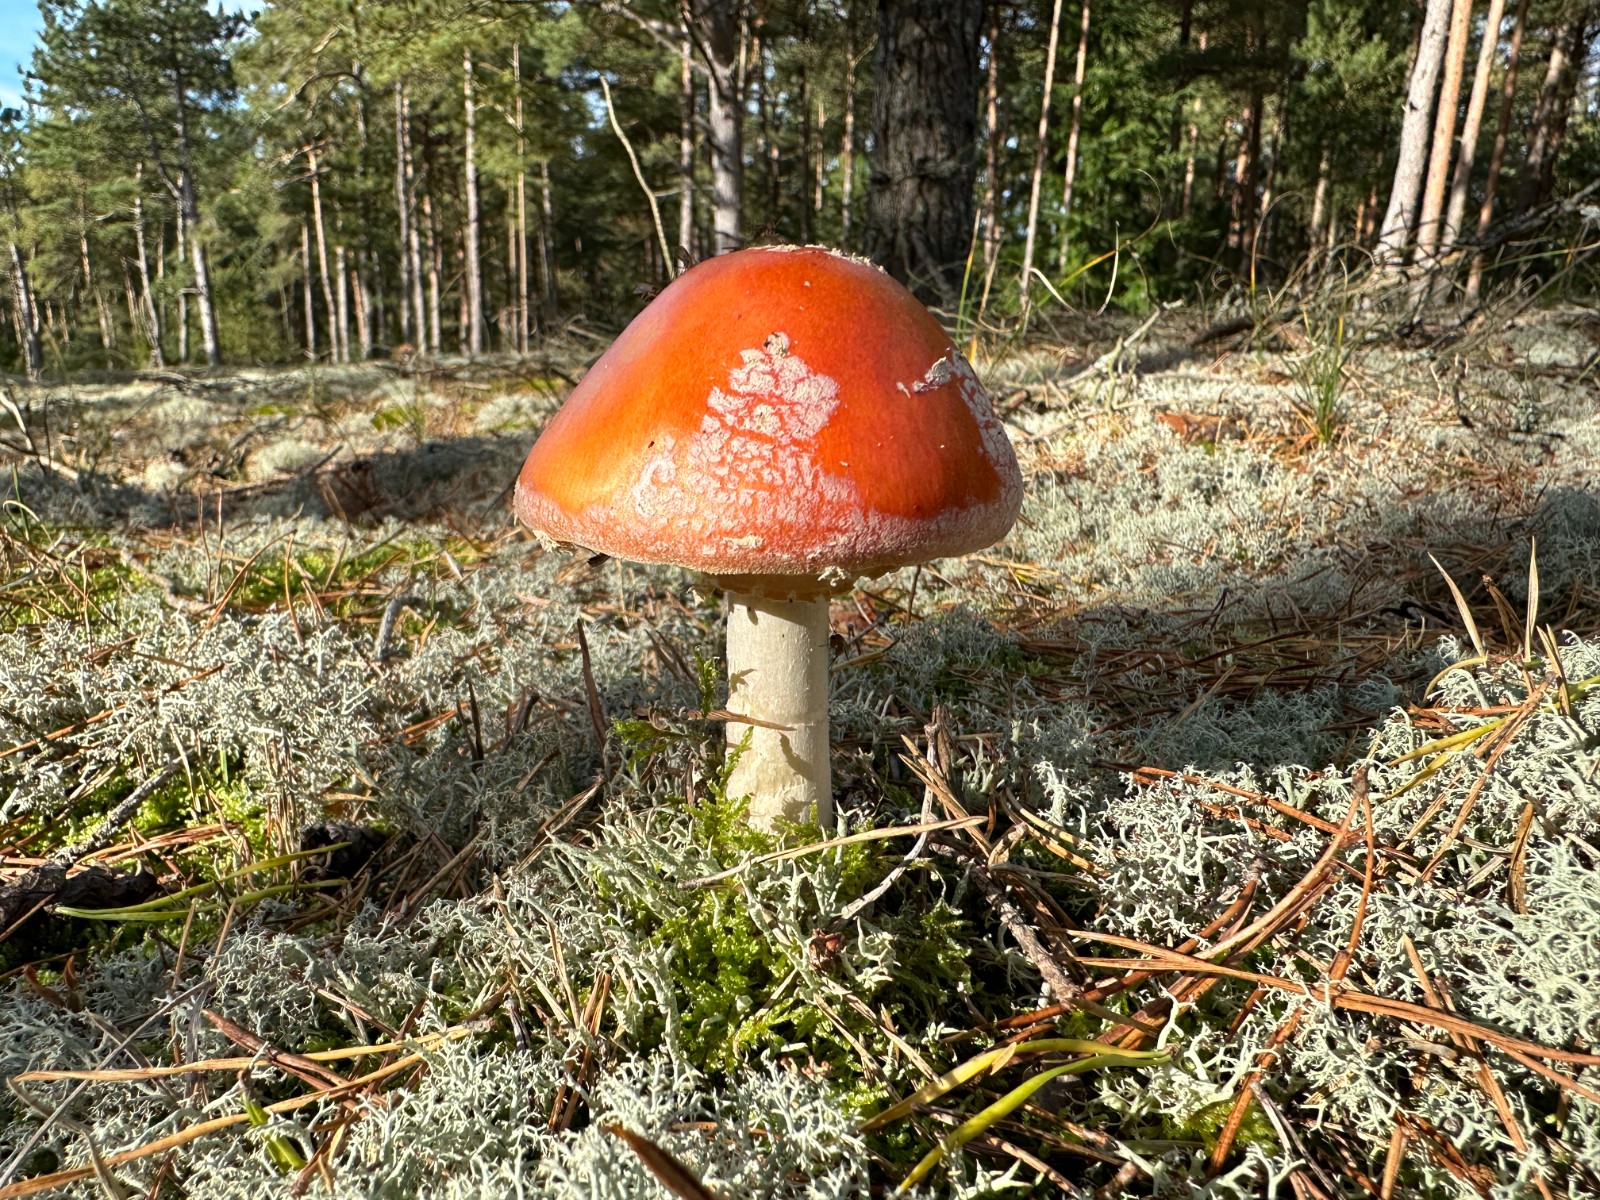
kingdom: Fungi
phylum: Basidiomycota
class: Agaricomycetes
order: Agaricales
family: Amanitaceae
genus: Amanita
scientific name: Amanita muscaria
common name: rød fluesvamp
